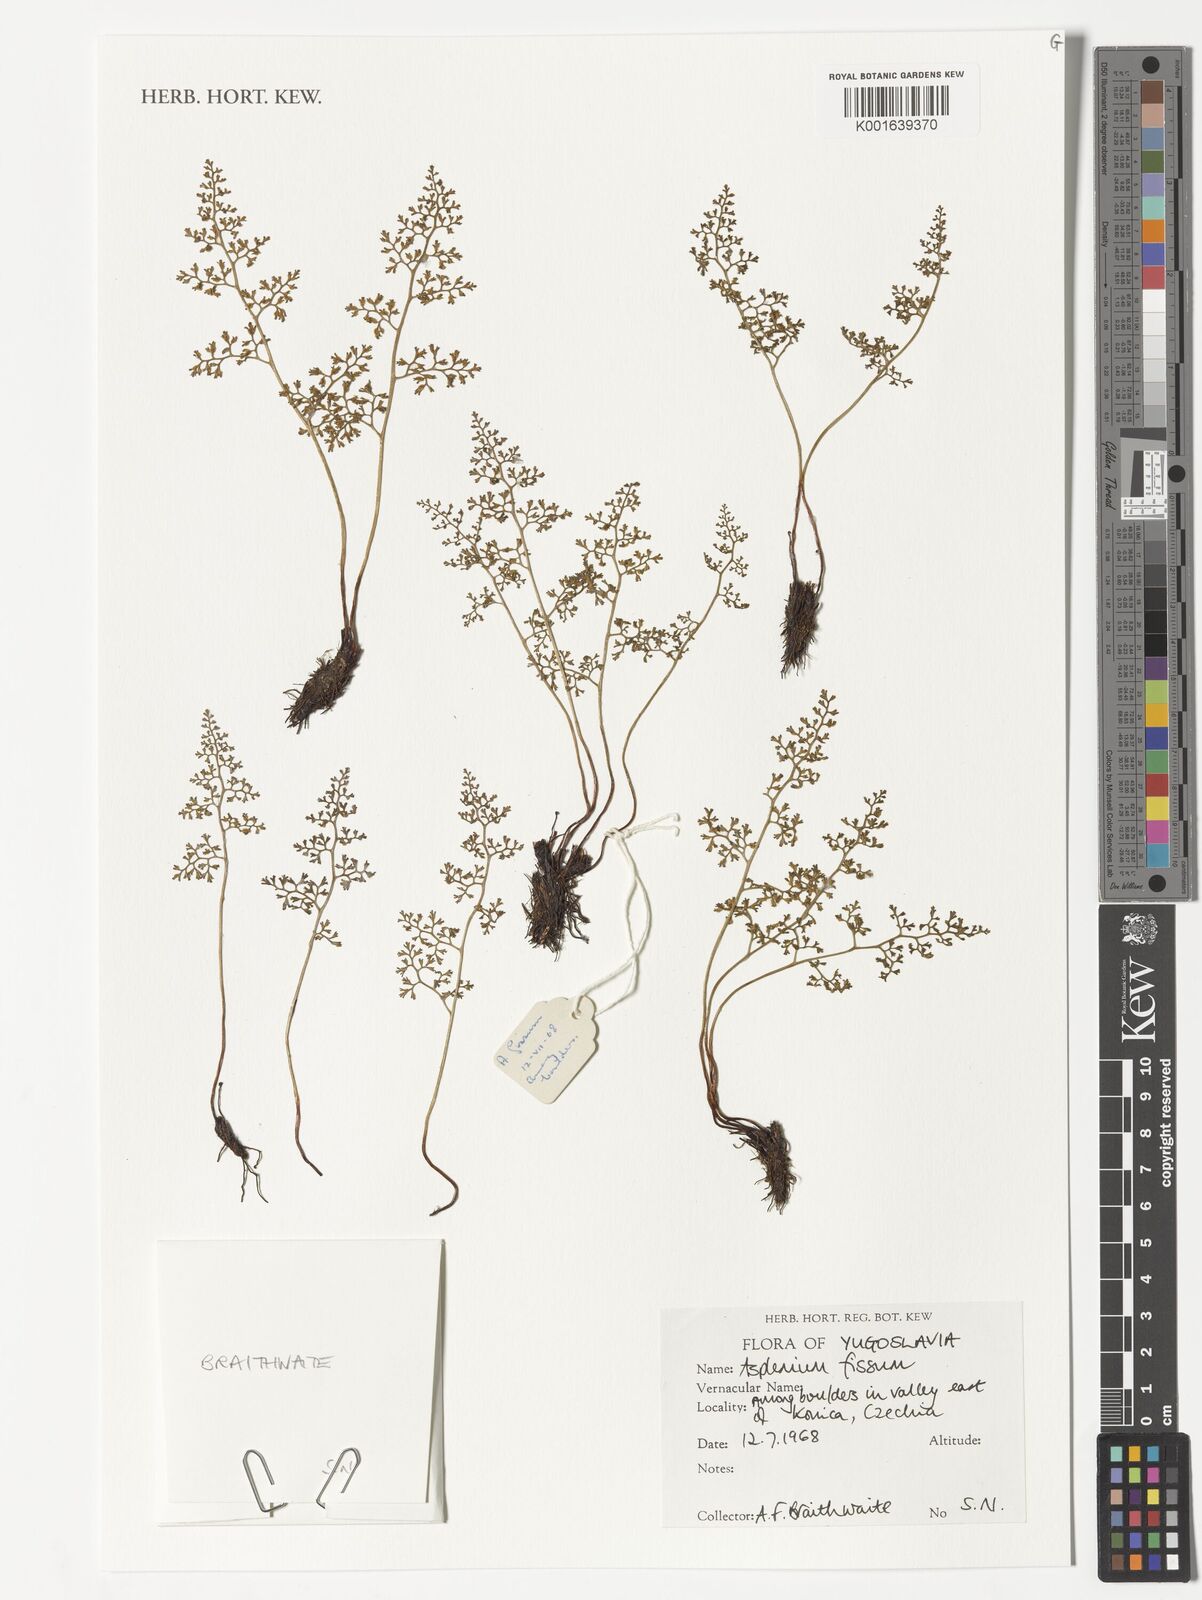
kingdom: Plantae
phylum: Tracheophyta
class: Polypodiopsida
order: Polypodiales
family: Aspleniaceae
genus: Asplenium
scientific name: Asplenium fissum
